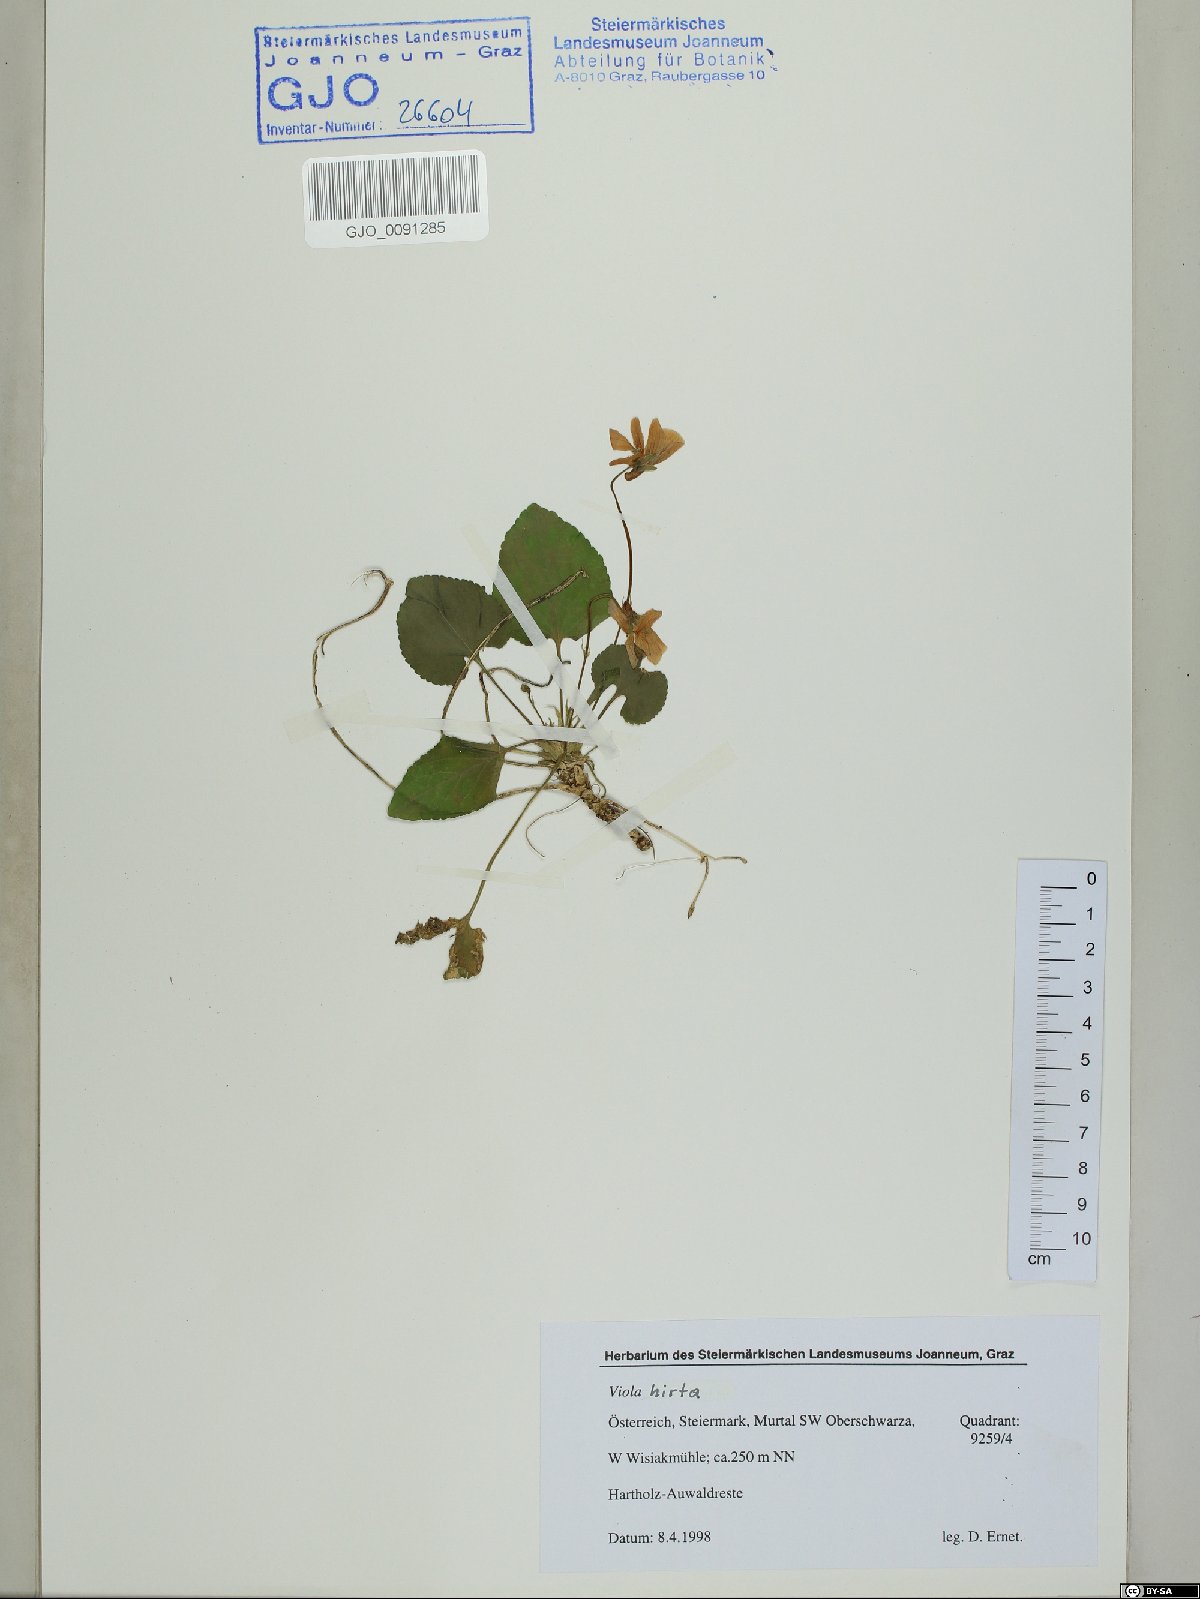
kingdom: Plantae
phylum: Tracheophyta
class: Magnoliopsida
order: Malpighiales
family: Violaceae
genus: Viola
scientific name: Viola hirta
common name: Hairy violet
